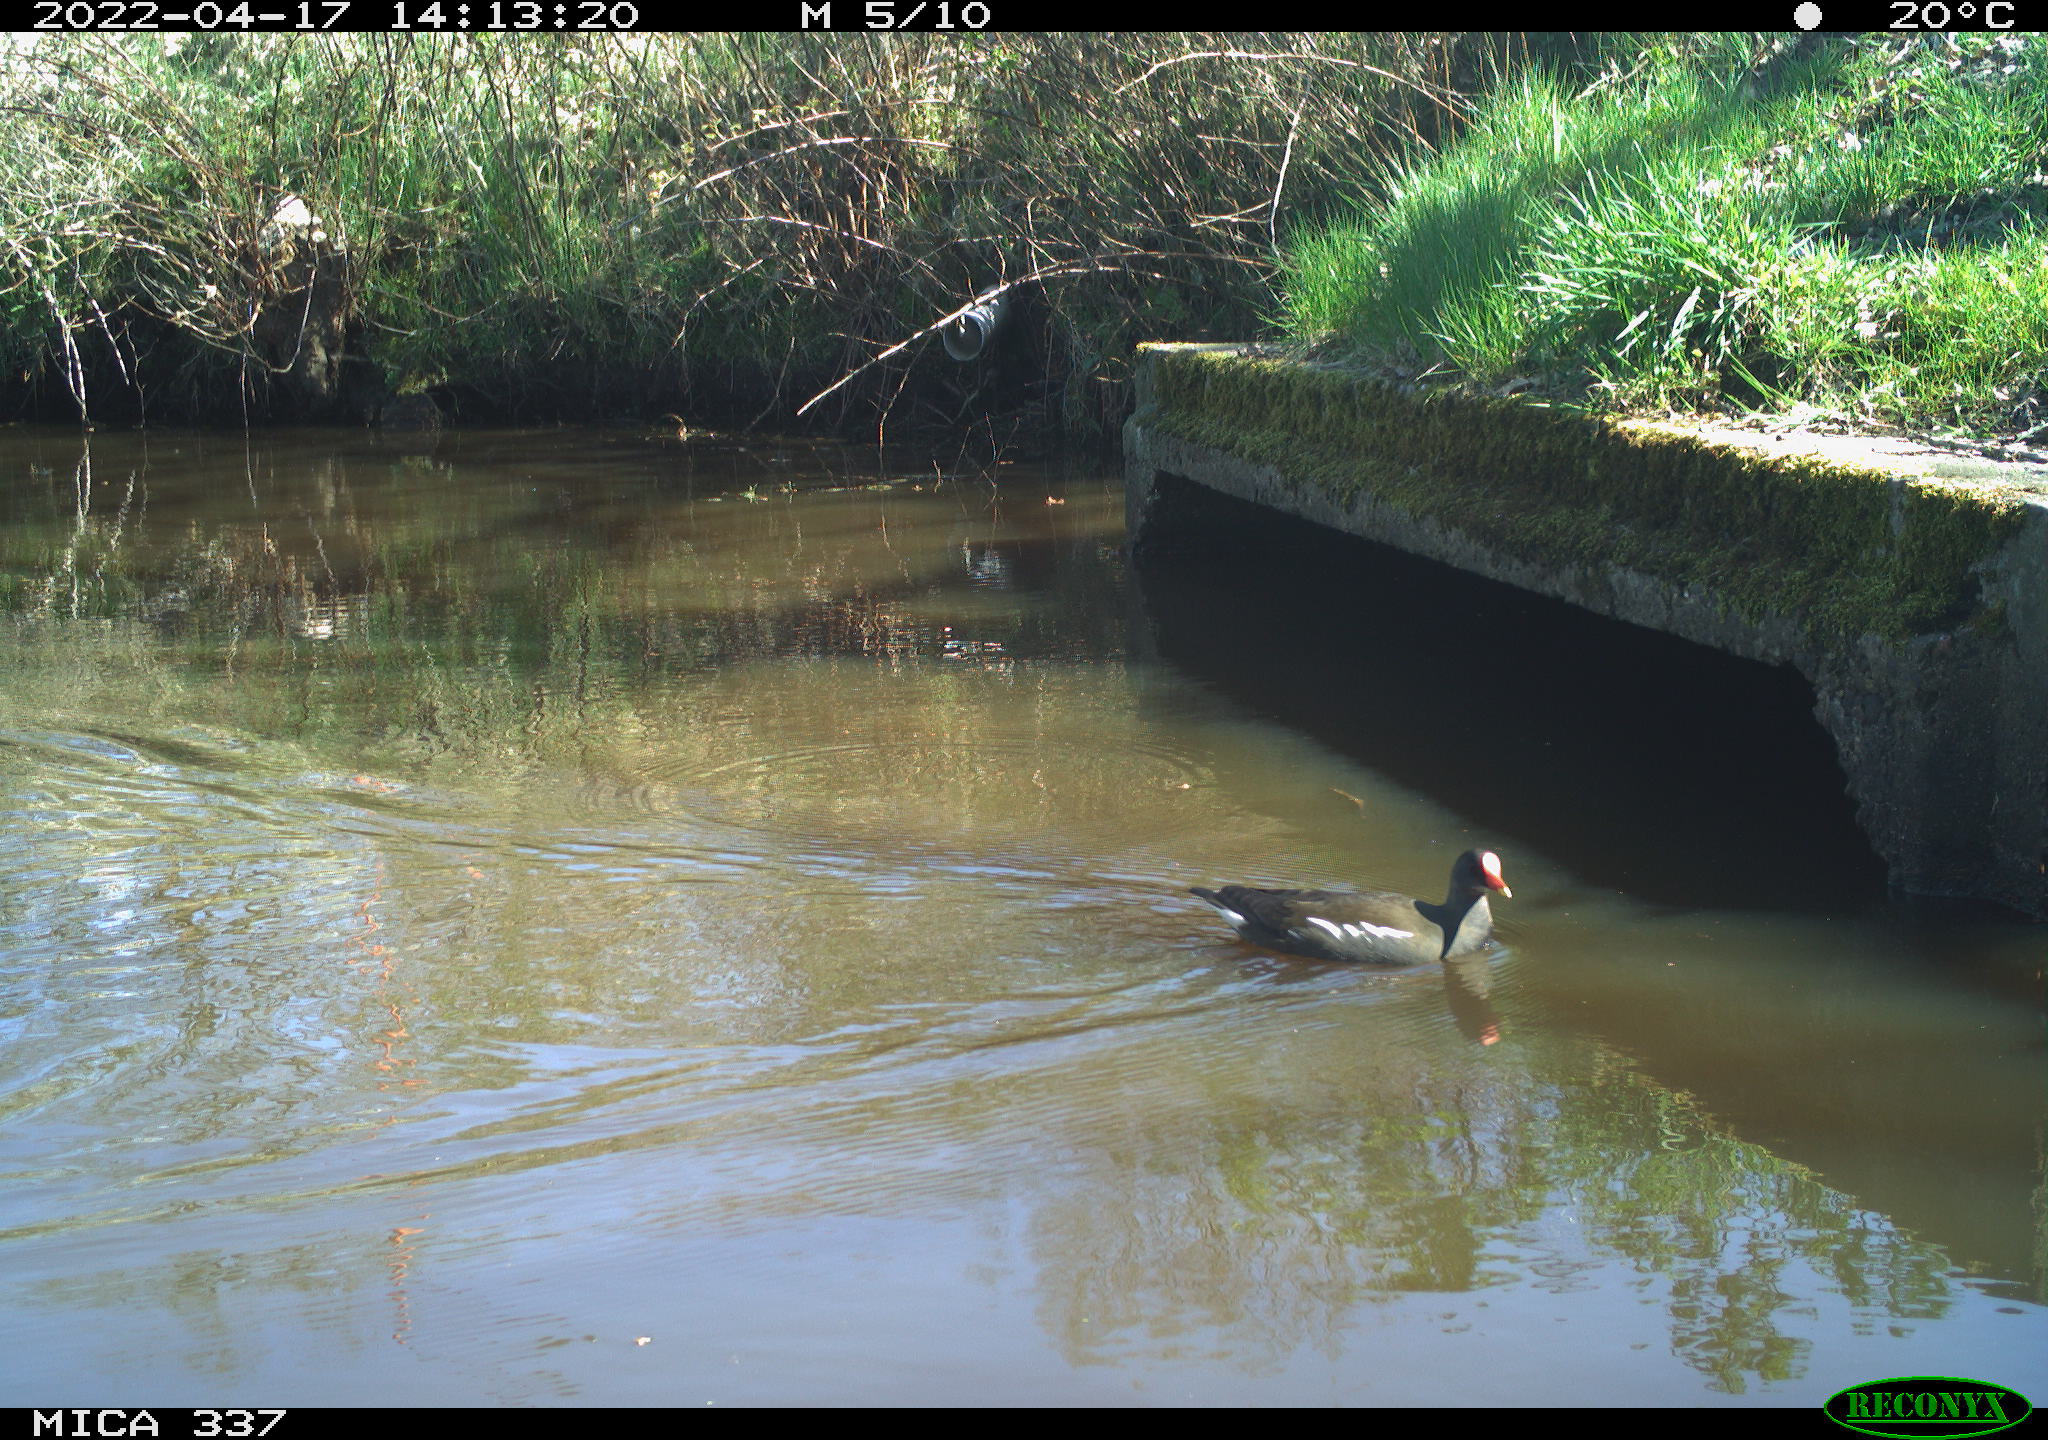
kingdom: Animalia
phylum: Chordata
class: Aves
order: Gruiformes
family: Rallidae
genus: Gallinula
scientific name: Gallinula chloropus
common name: Common moorhen
